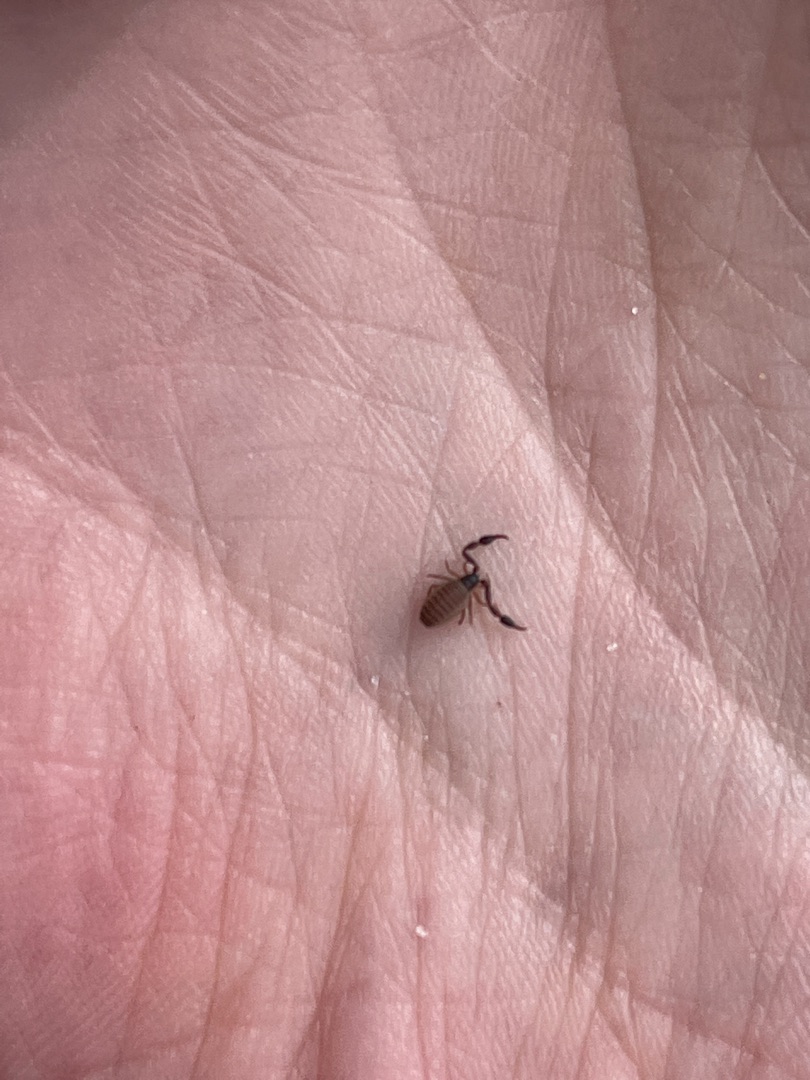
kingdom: Animalia
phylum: Arthropoda
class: Arachnida
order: Pseudoscorpiones
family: Cheliferidae
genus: Dactylochelifer
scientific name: Dactylochelifer latreillii
